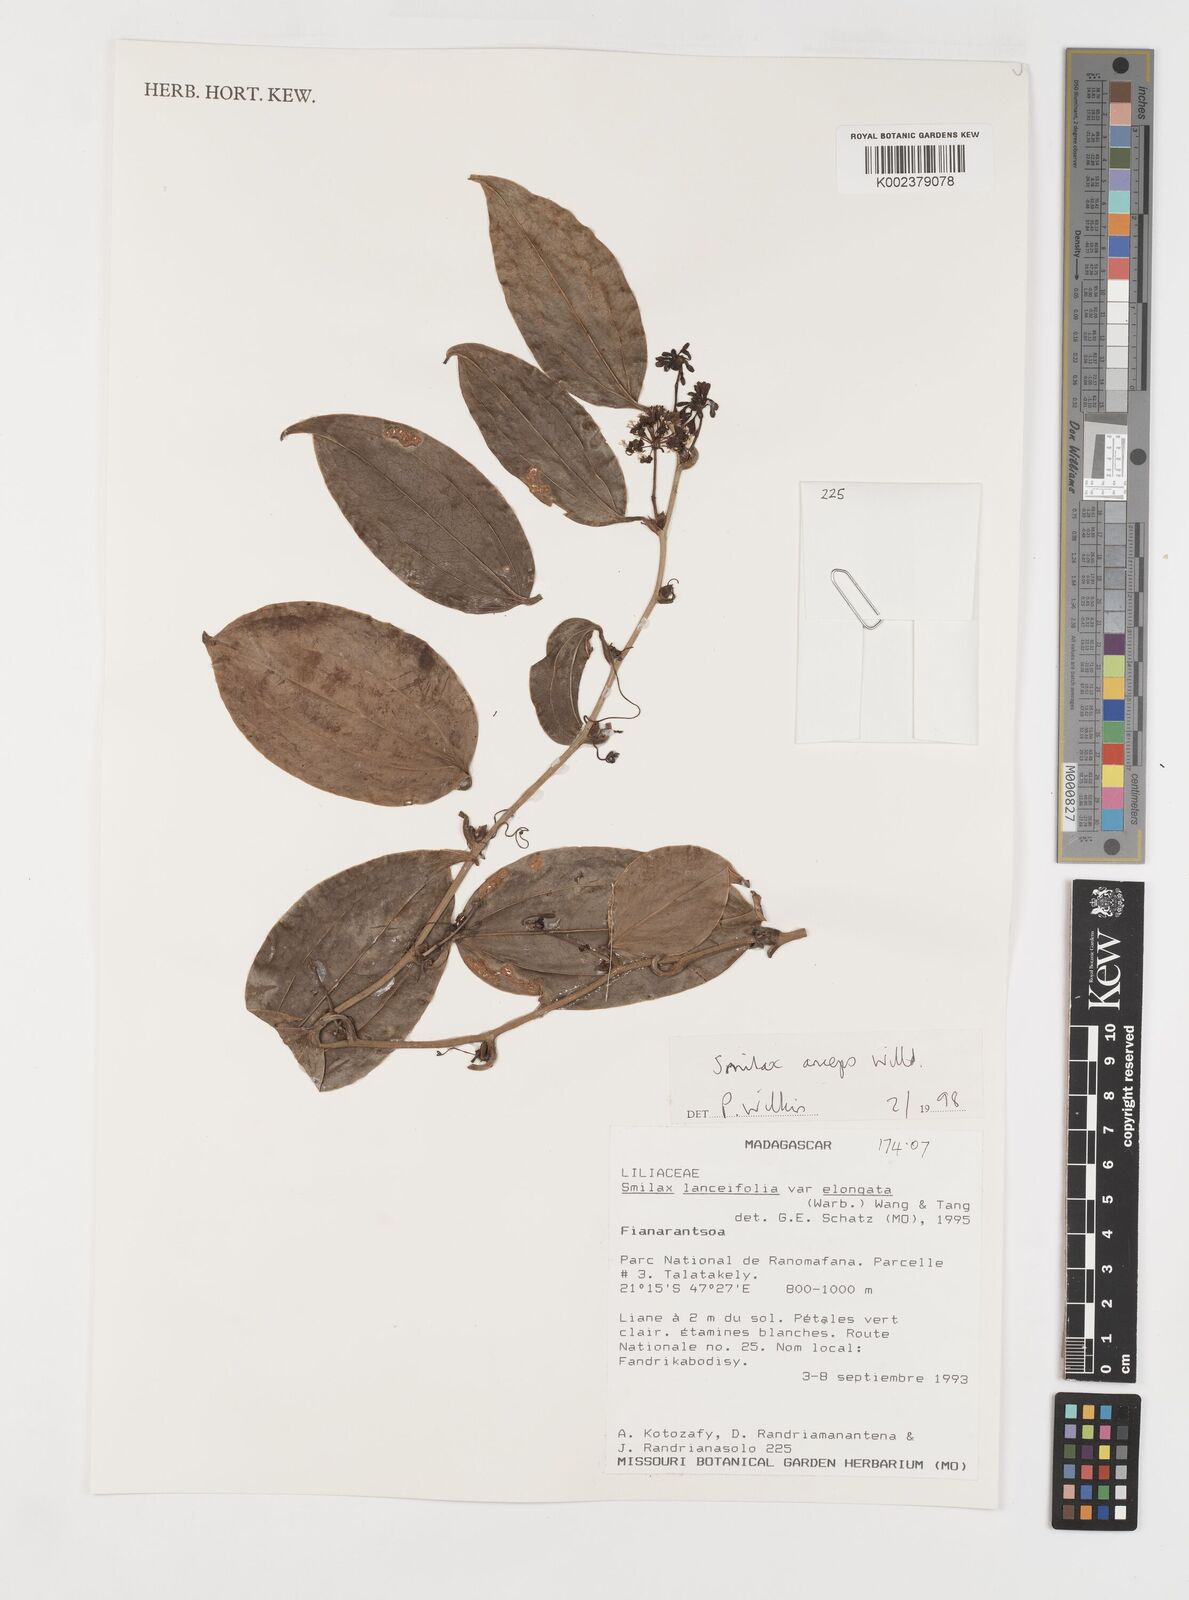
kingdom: Plantae
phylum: Tracheophyta
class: Liliopsida
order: Liliales
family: Smilacaceae
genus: Smilax
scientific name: Smilax anceps
